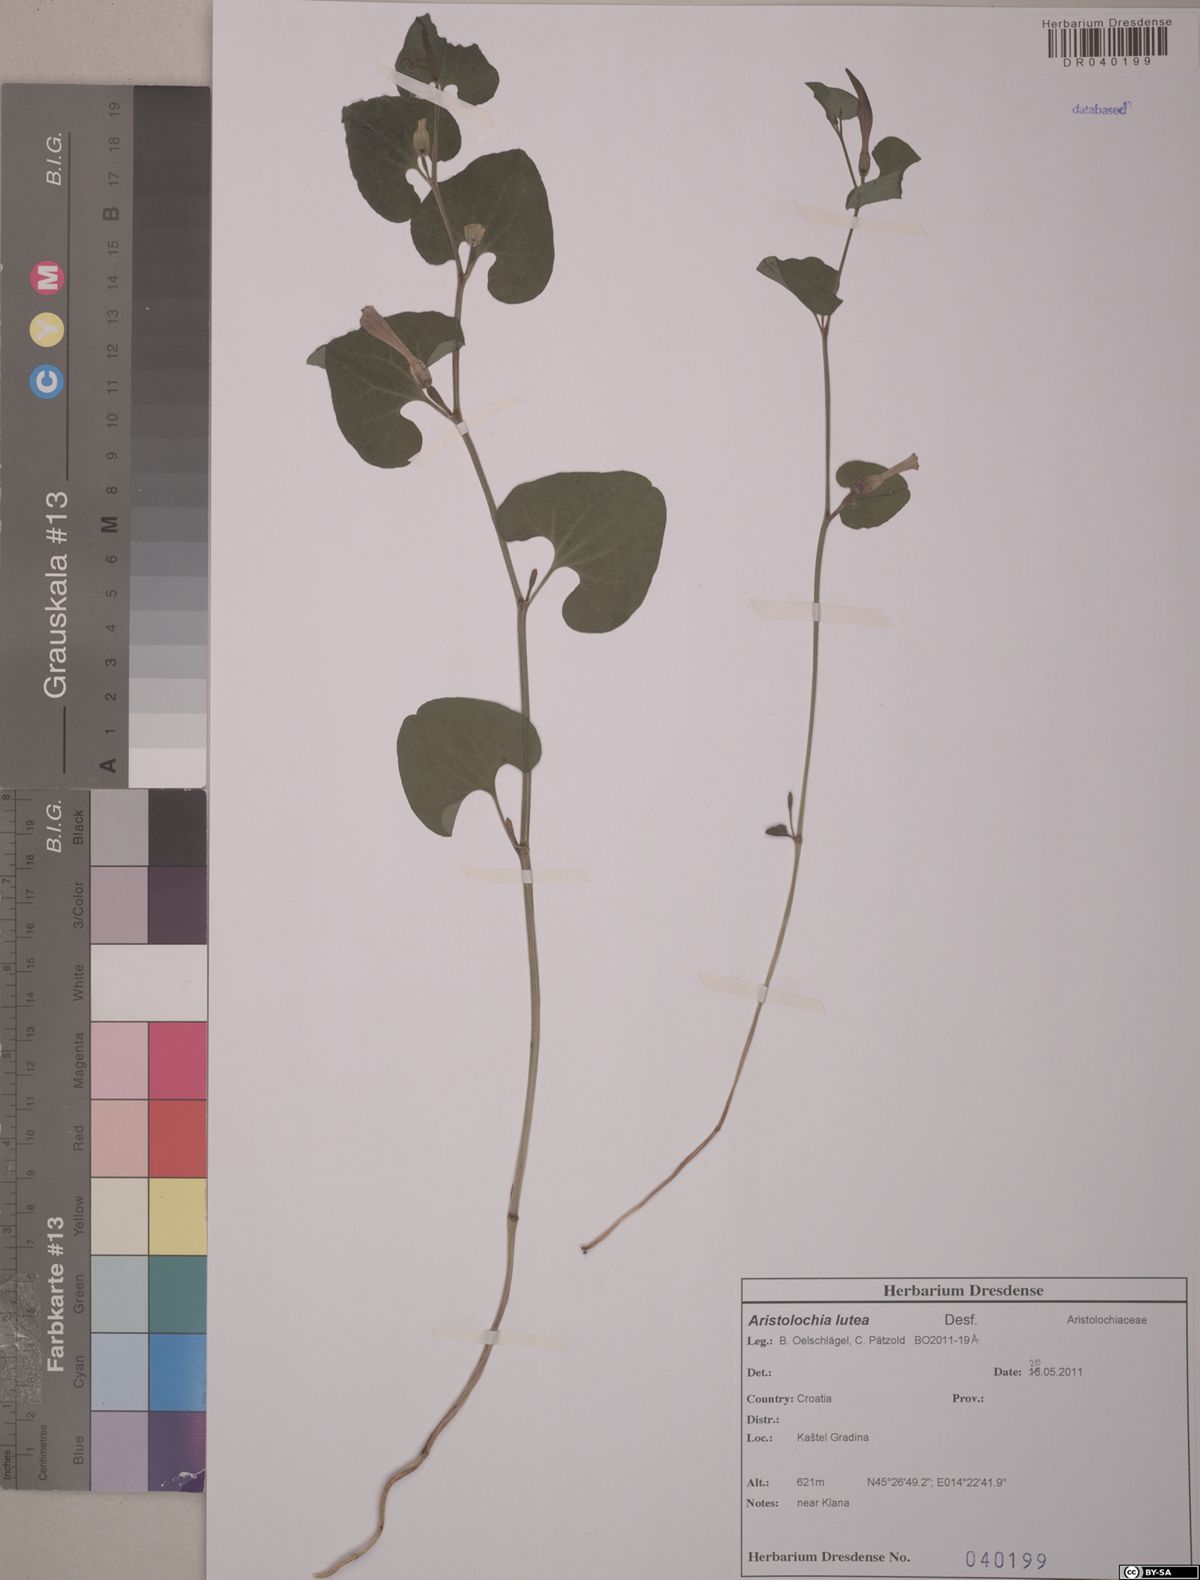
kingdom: Plantae
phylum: Tracheophyta
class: Magnoliopsida
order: Piperales
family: Aristolochiaceae
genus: Aristolochia
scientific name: Aristolochia lutea
